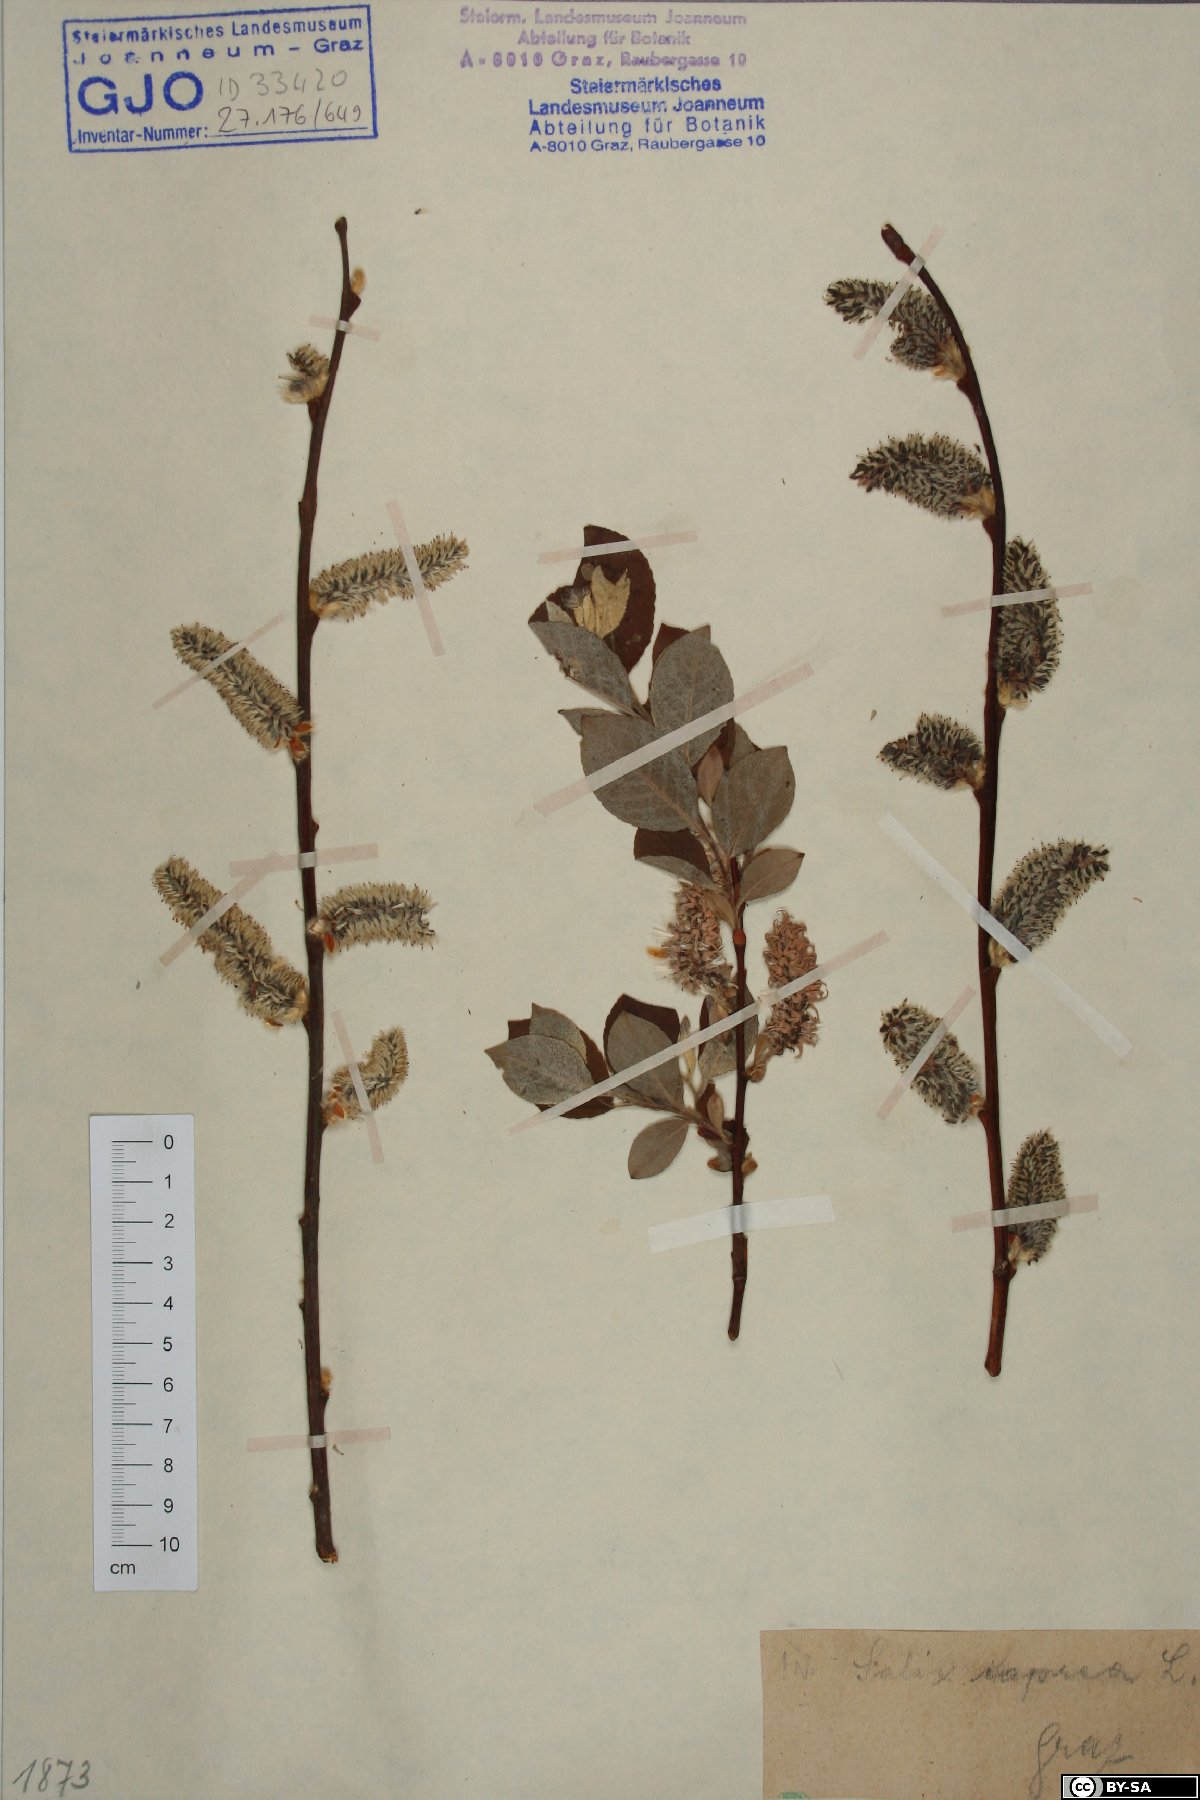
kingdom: Plantae
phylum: Tracheophyta
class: Magnoliopsida
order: Malpighiales
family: Salicaceae
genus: Salix
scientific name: Salix caprea
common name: Goat willow
